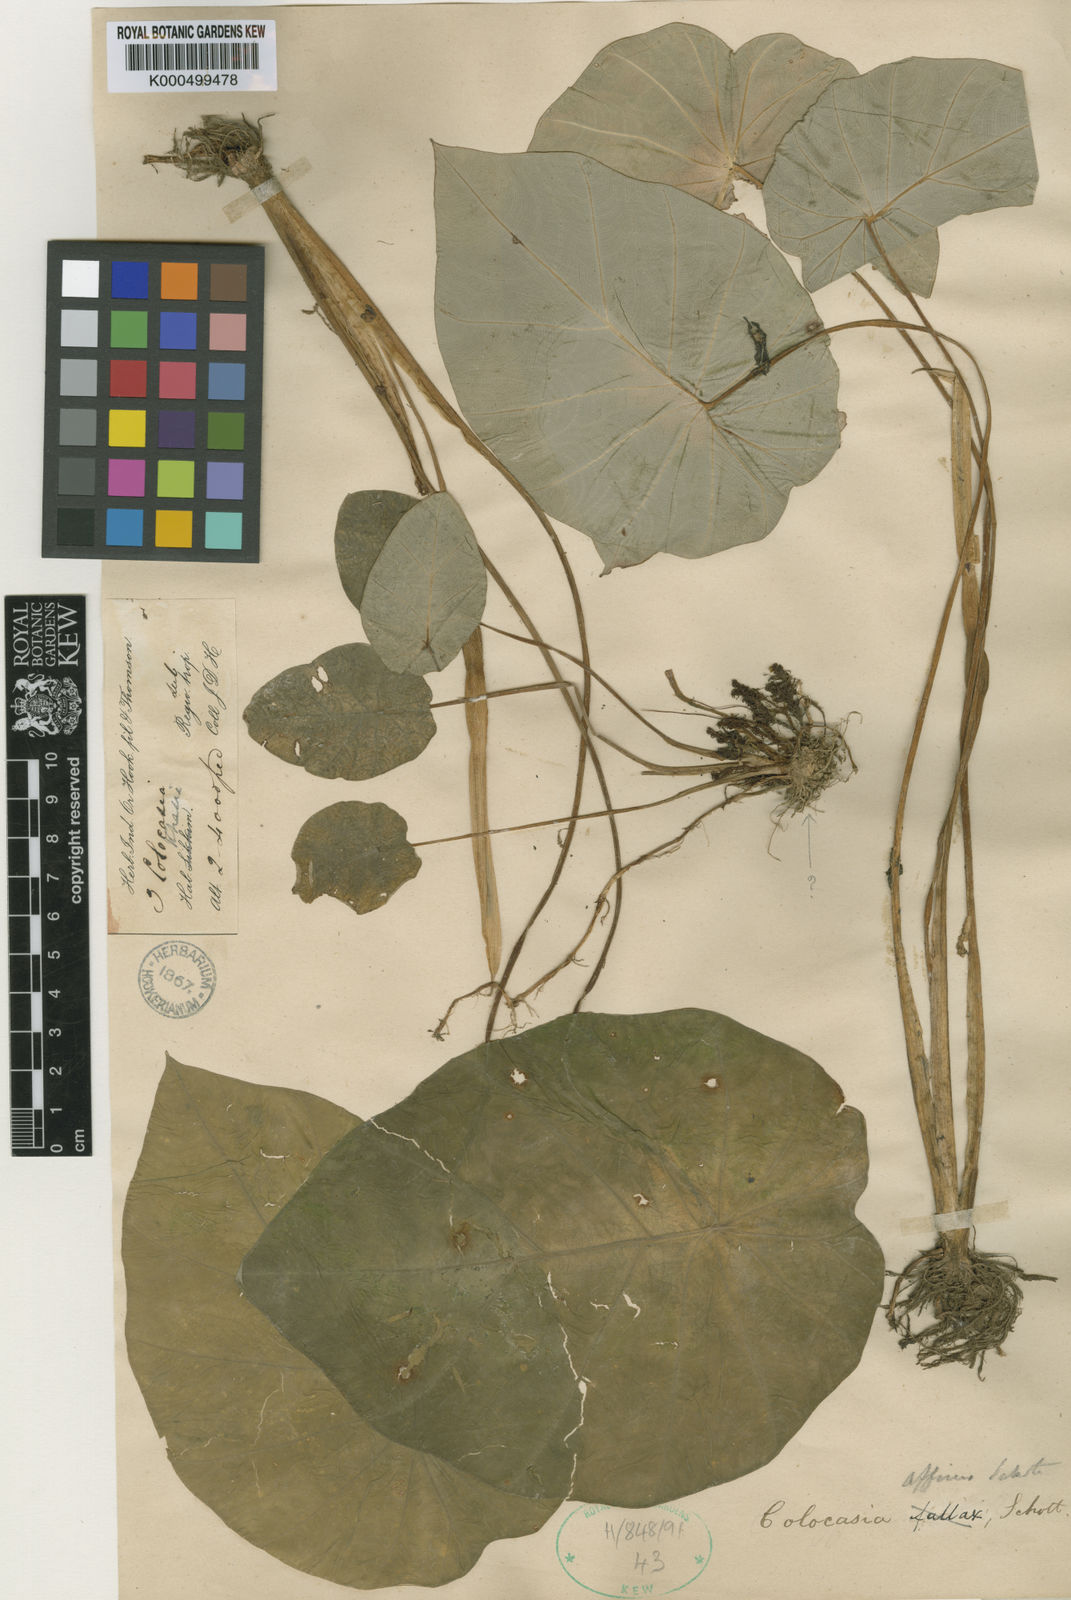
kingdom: Plantae
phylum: Tracheophyta
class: Liliopsida
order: Alismatales
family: Araceae
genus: Colocasia
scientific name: Colocasia affinis
